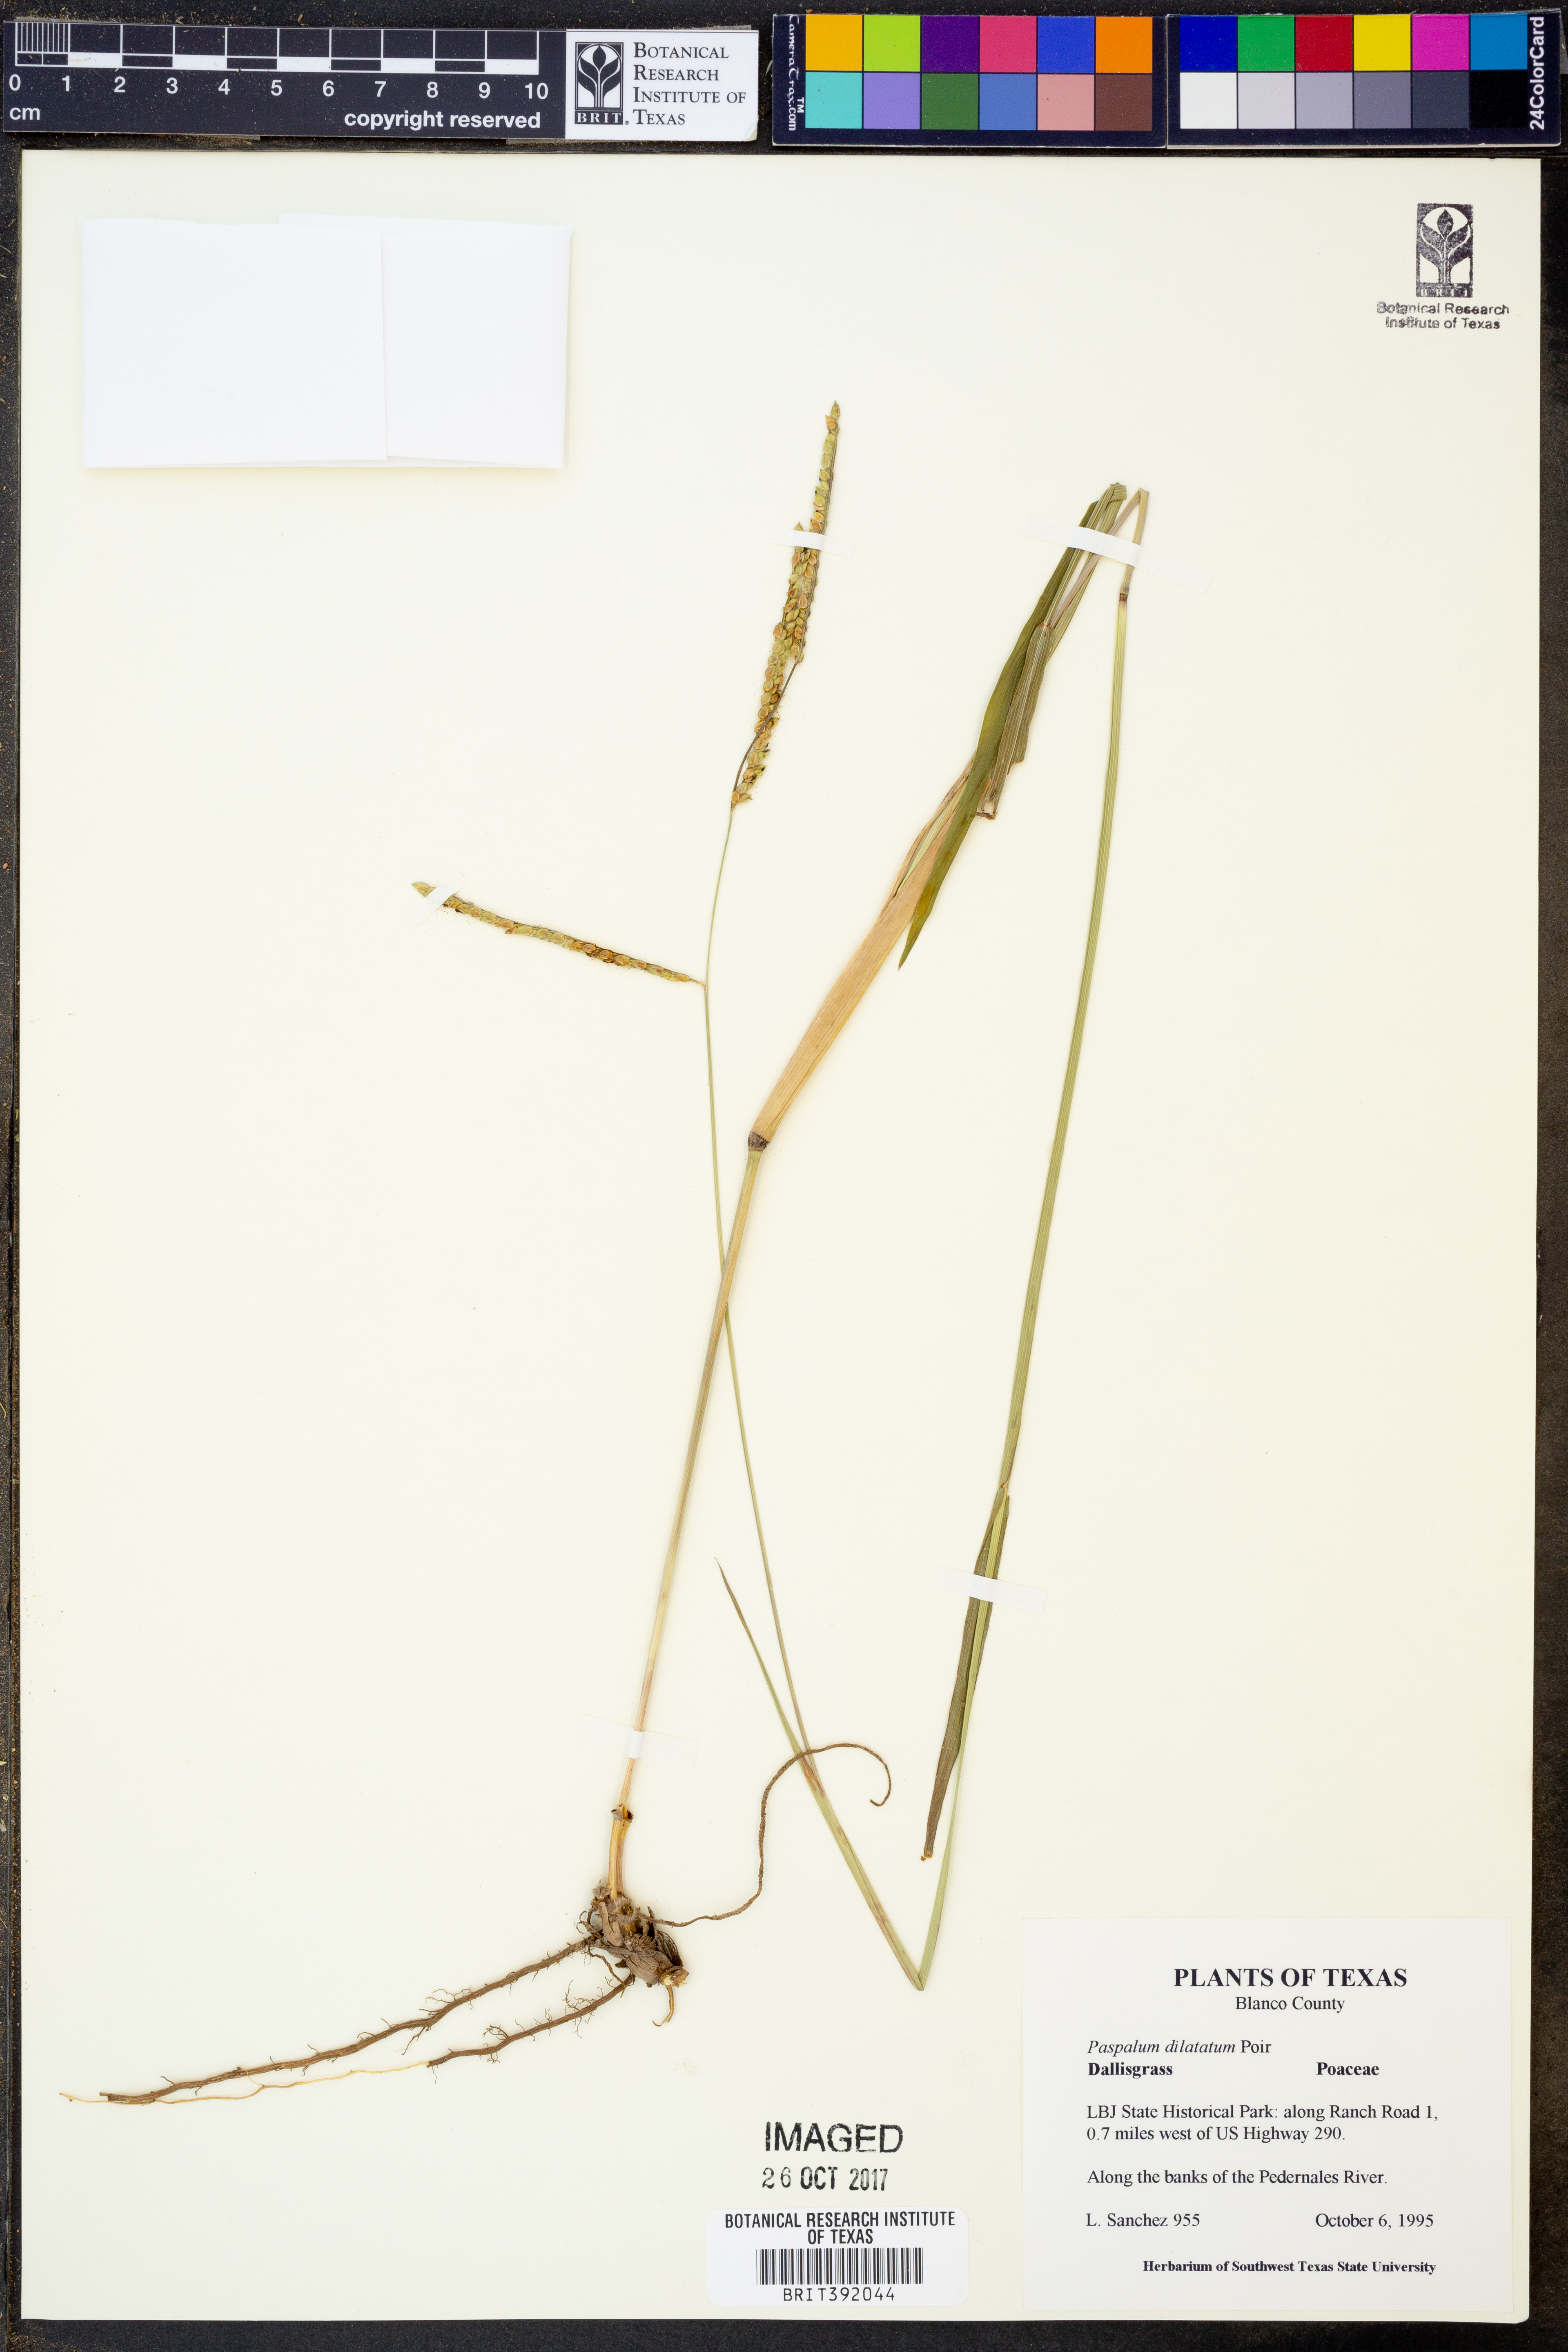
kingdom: Plantae
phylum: Tracheophyta
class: Liliopsida
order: Poales
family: Poaceae
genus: Paspalum
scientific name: Paspalum dilatatum
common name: Dallisgrass
